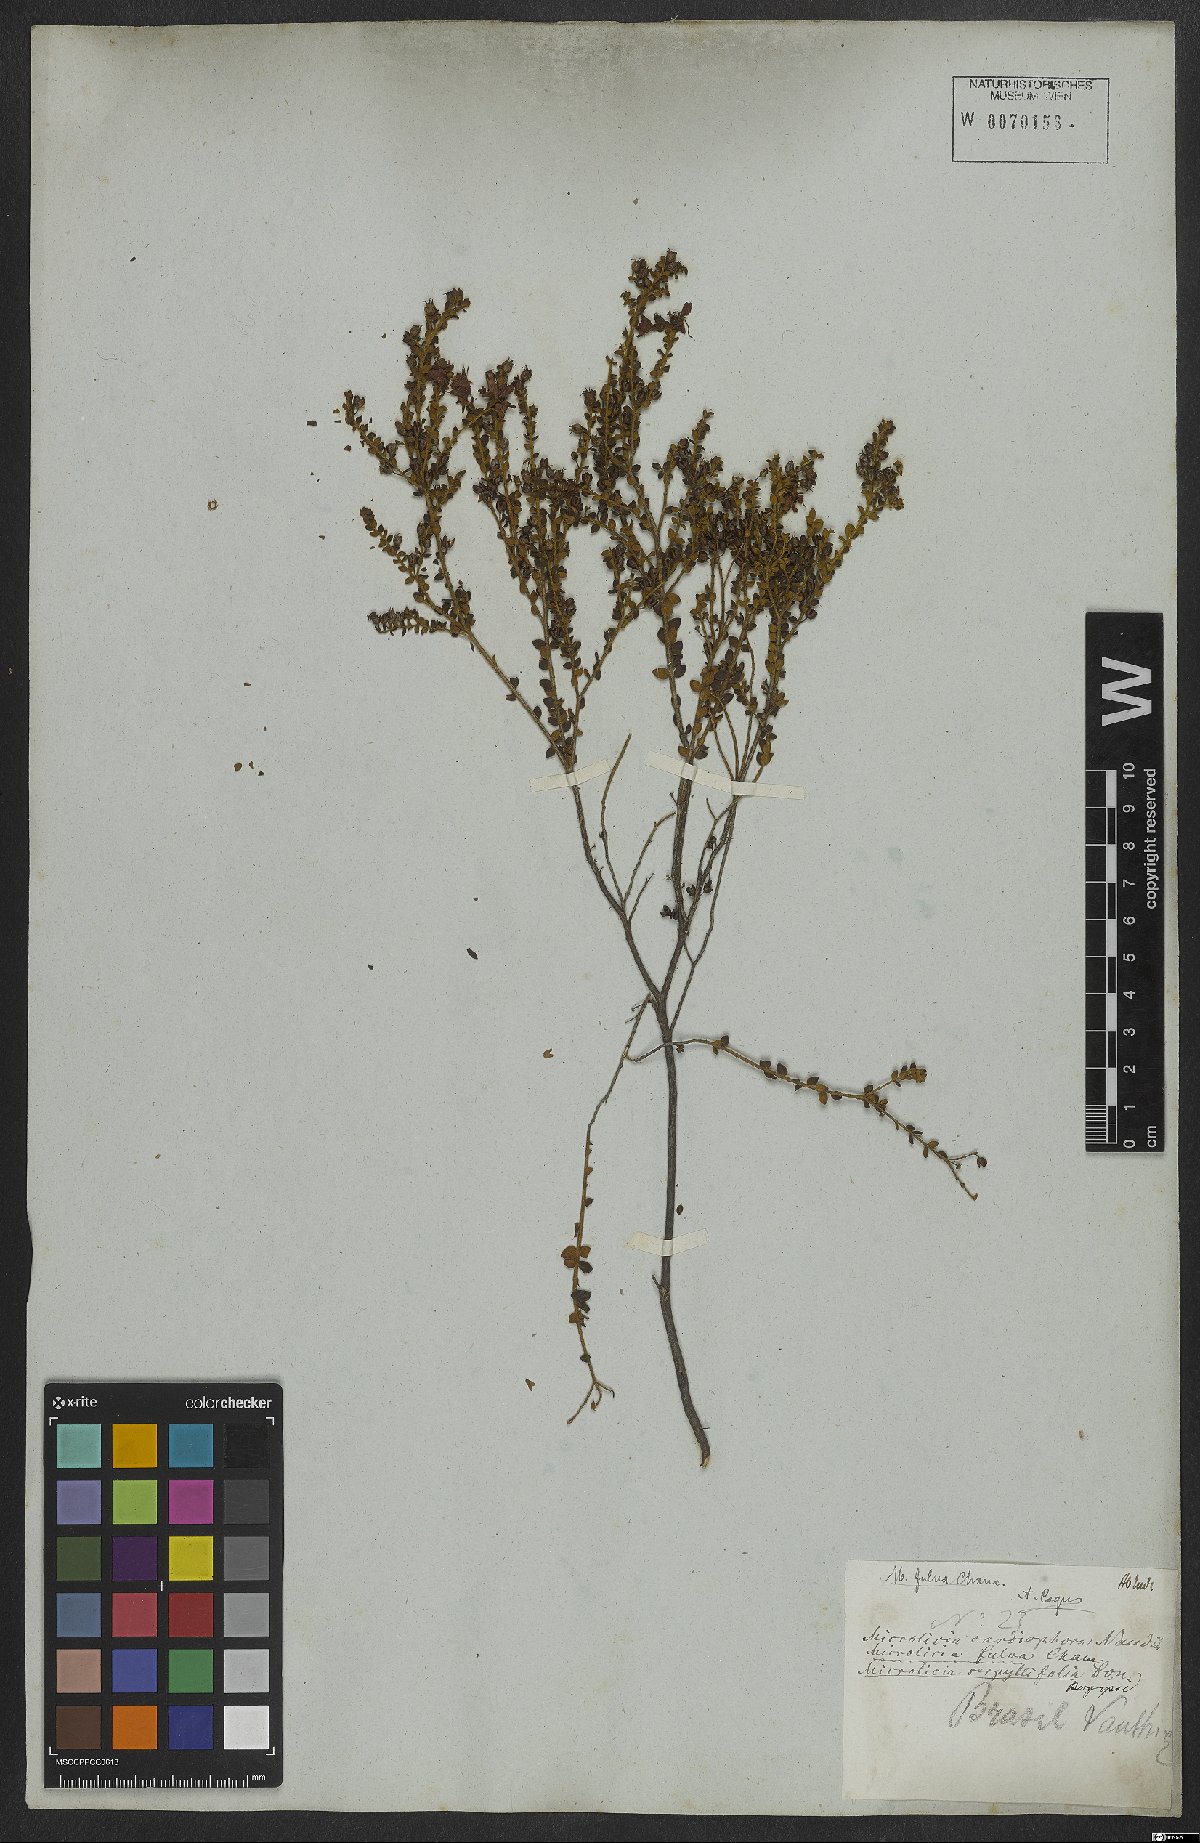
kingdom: Plantae
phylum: Tracheophyta
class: Magnoliopsida
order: Myrtales
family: Melastomataceae
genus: Microlicia
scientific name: Microlicia fulva
